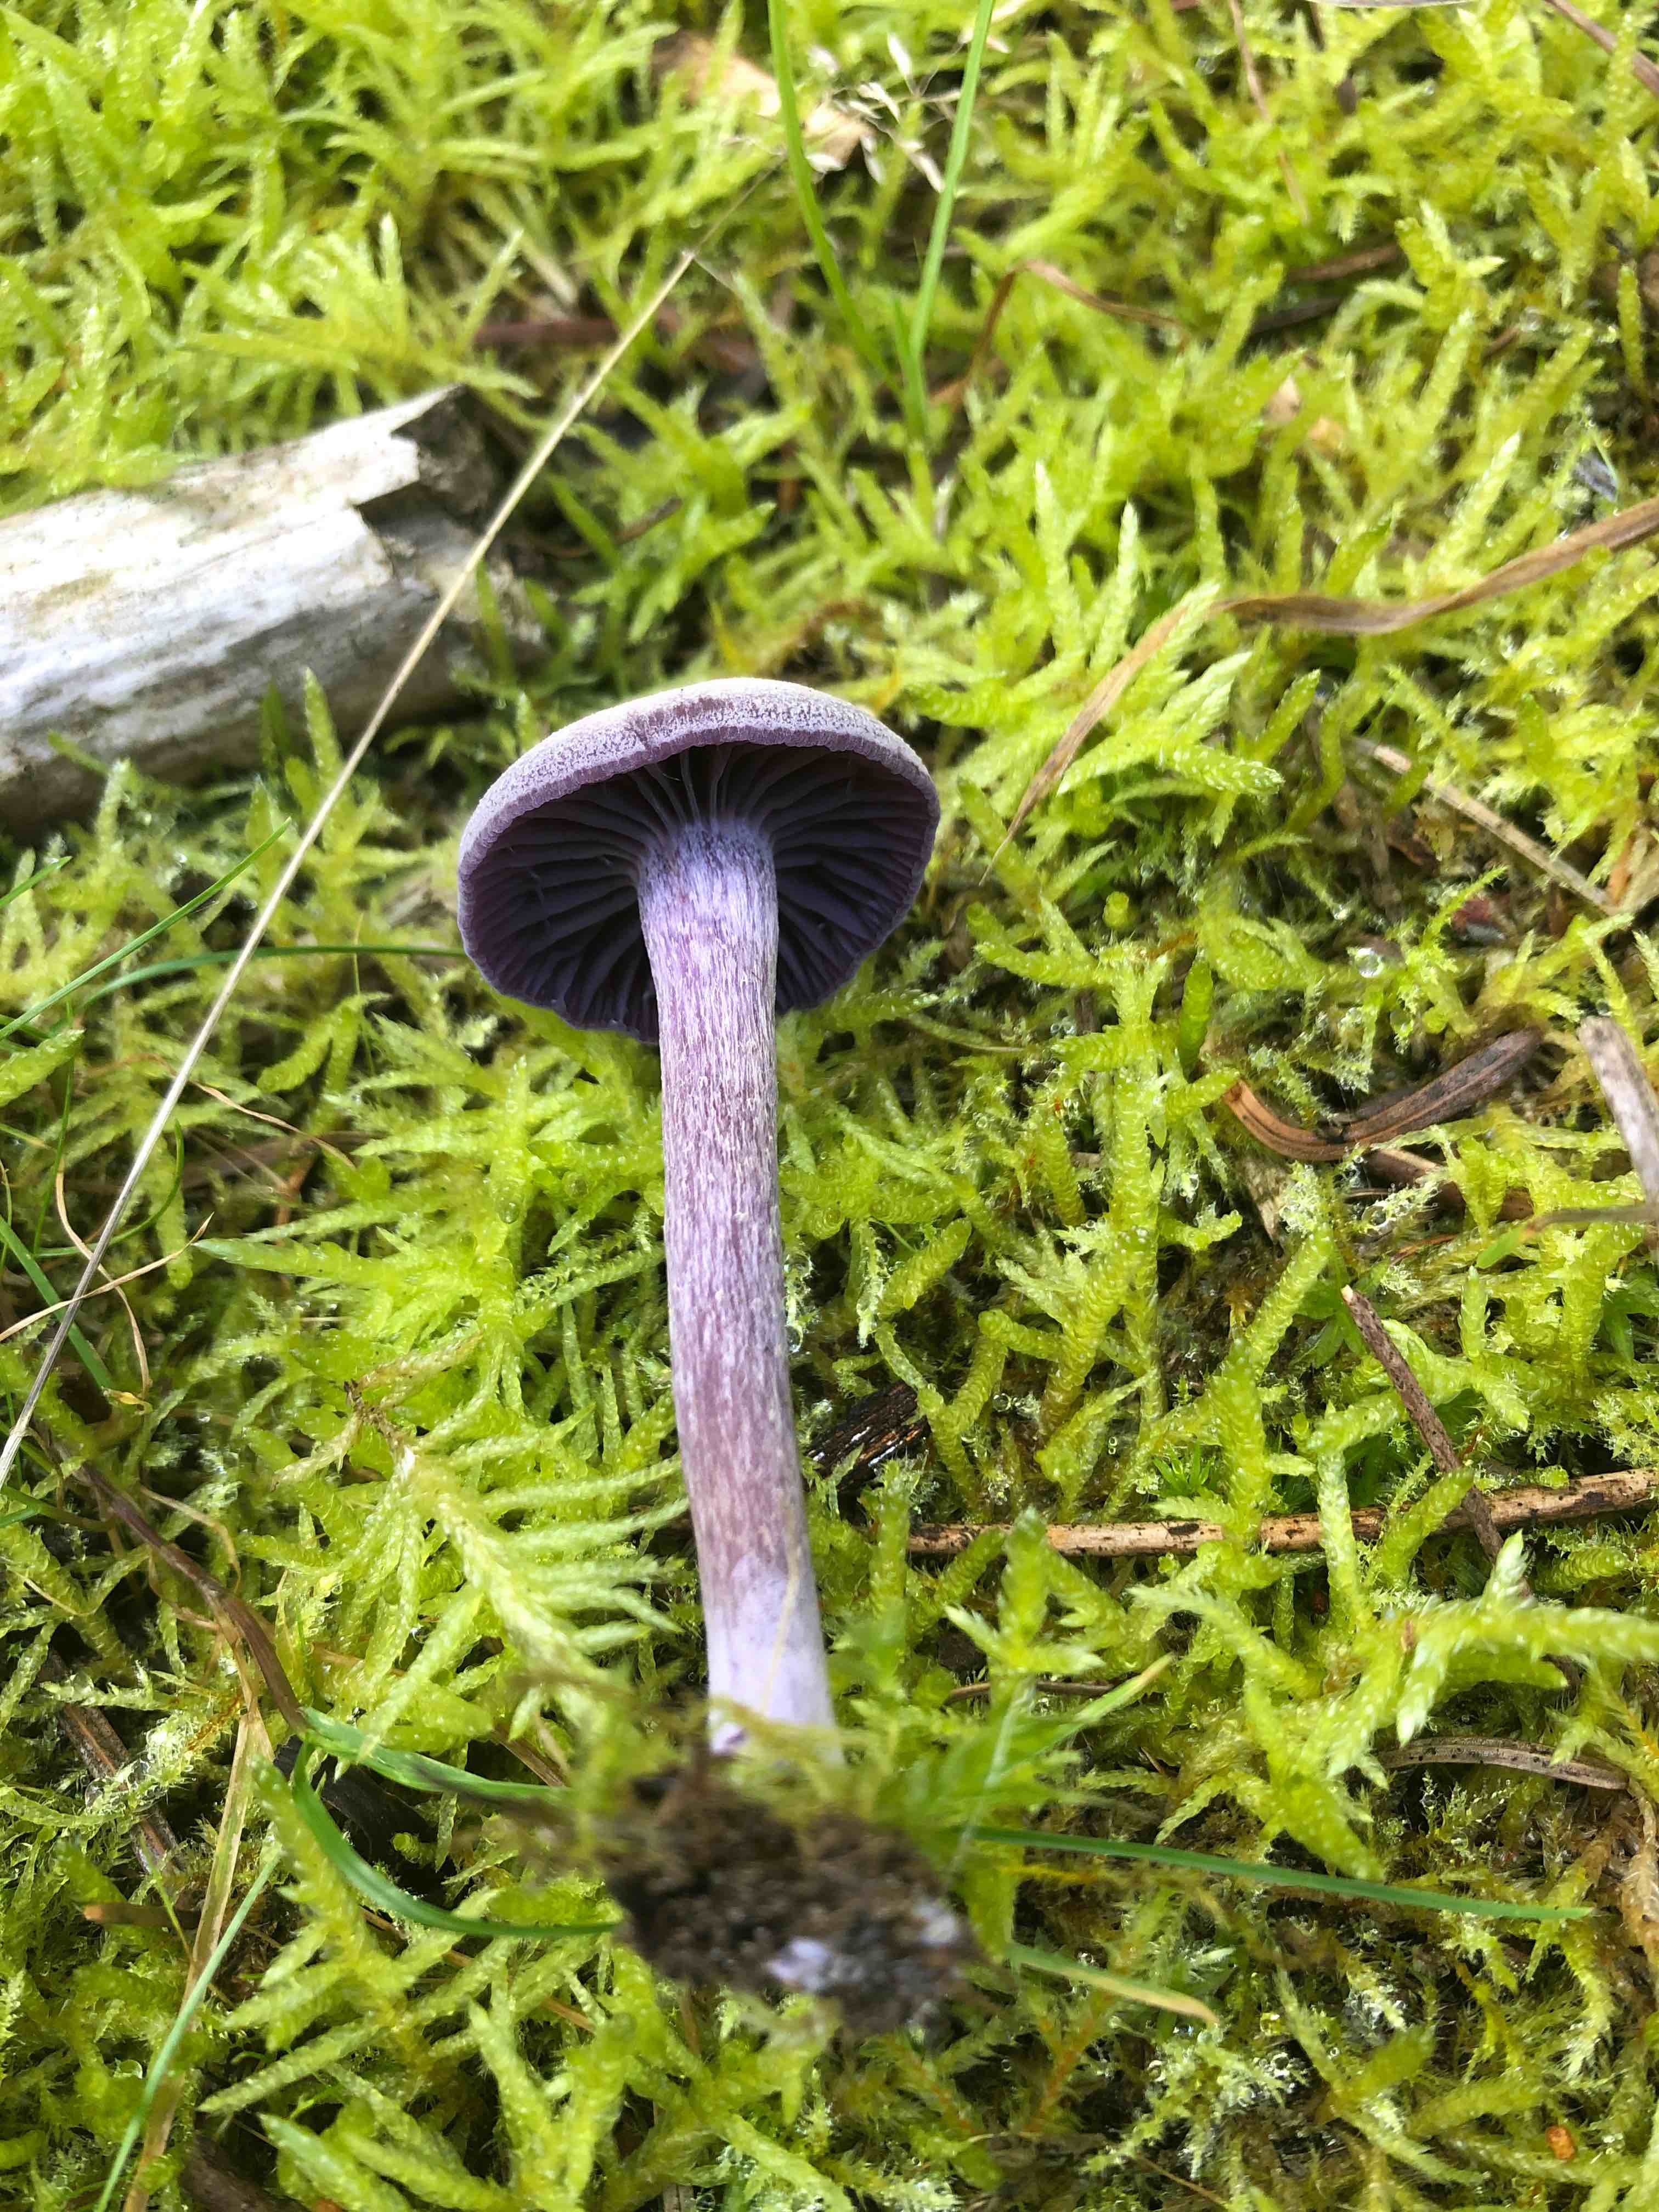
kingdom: Fungi
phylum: Basidiomycota
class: Agaricomycetes
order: Agaricales
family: Hydnangiaceae
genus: Laccaria
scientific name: Laccaria amethystina
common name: violet ametysthat
